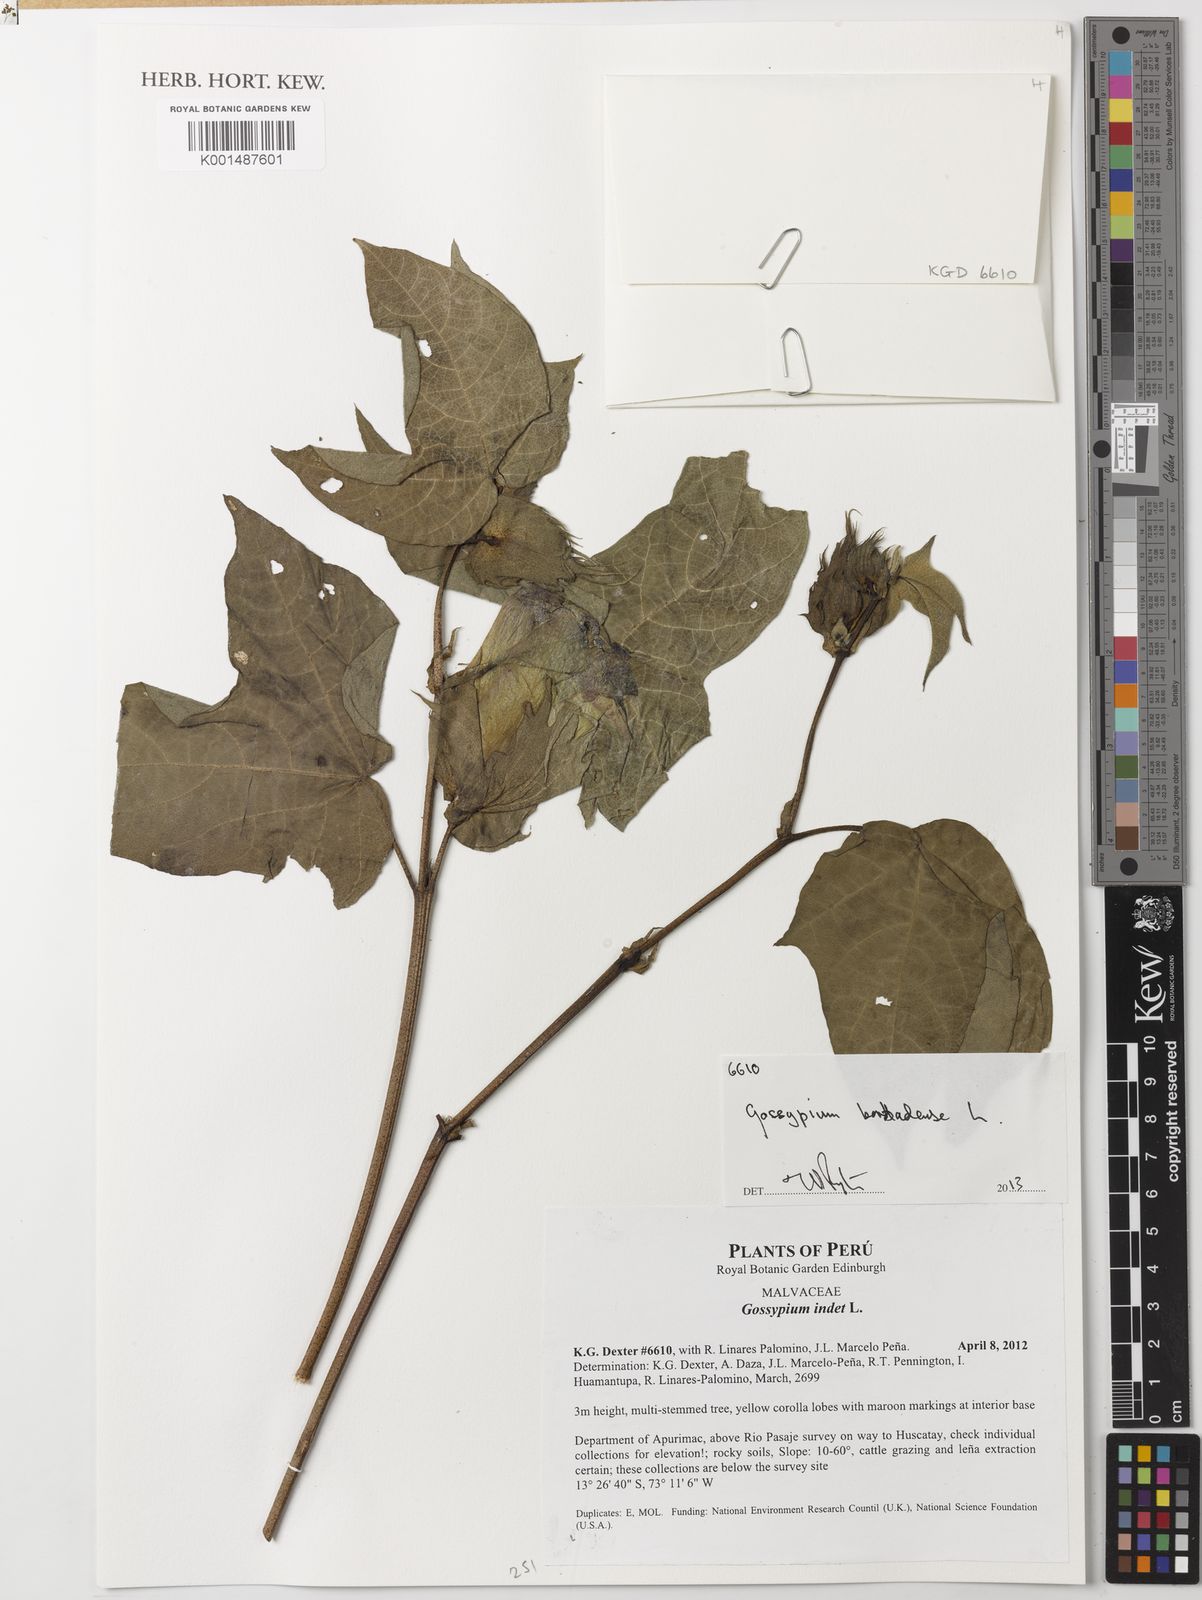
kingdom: Plantae
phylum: Tracheophyta
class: Magnoliopsida
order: Malvales
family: Malvaceae
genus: Gossypium
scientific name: Gossypium barbadense
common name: Creole cotton
